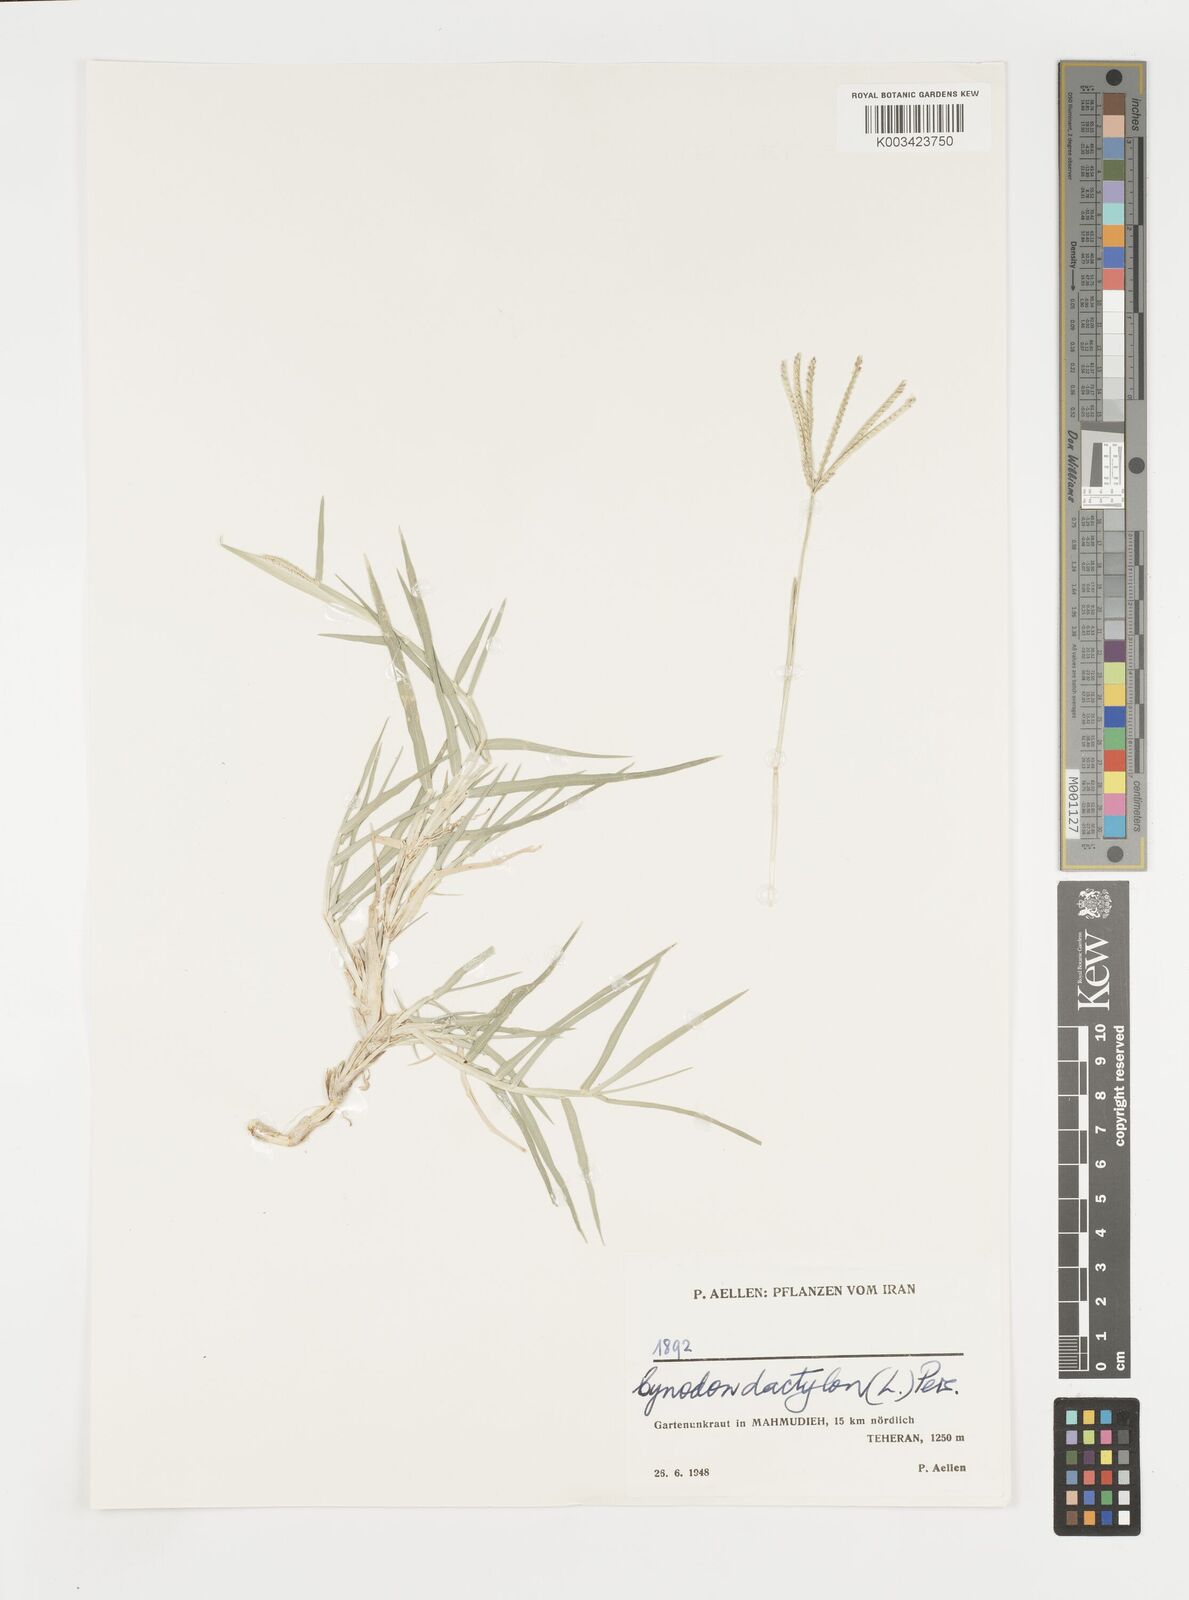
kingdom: Plantae
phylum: Tracheophyta
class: Liliopsida
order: Poales
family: Poaceae
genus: Cynodon
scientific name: Cynodon dactylon
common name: Bermuda grass
